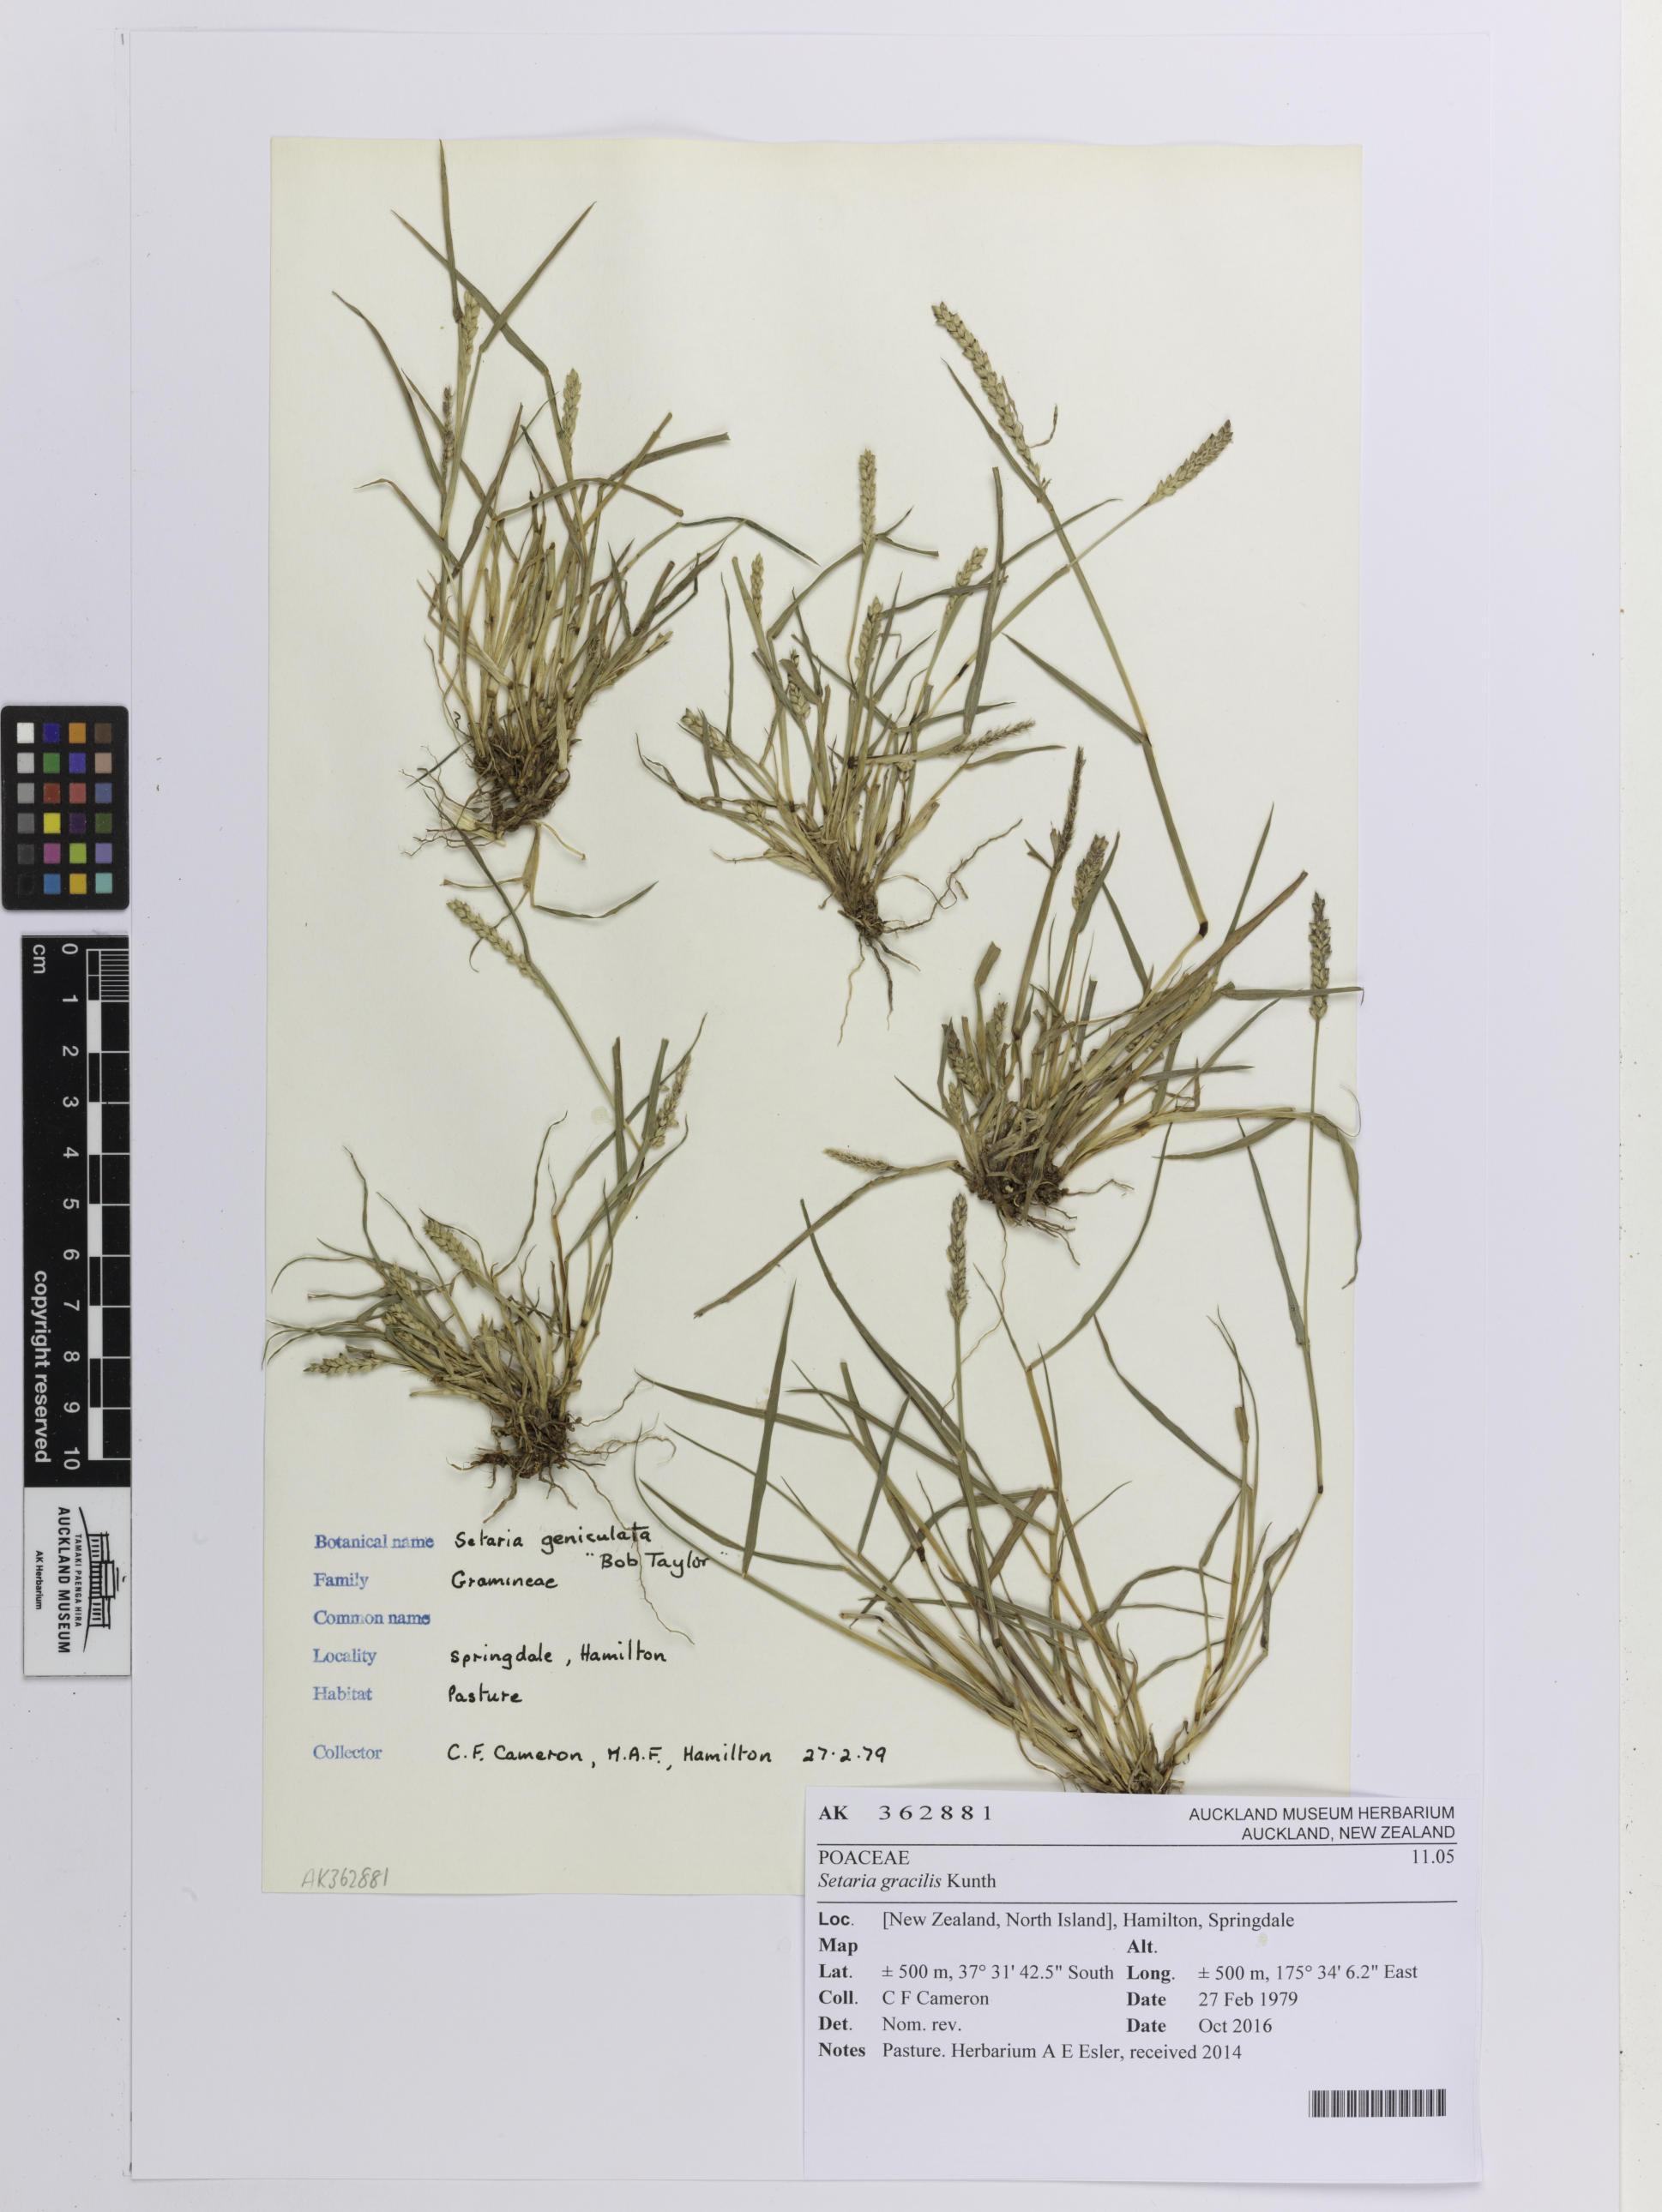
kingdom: Plantae
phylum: Tracheophyta
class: Liliopsida
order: Poales
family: Poaceae
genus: Setaria
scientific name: Setaria parviflora
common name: Knotroot bristle-grass
